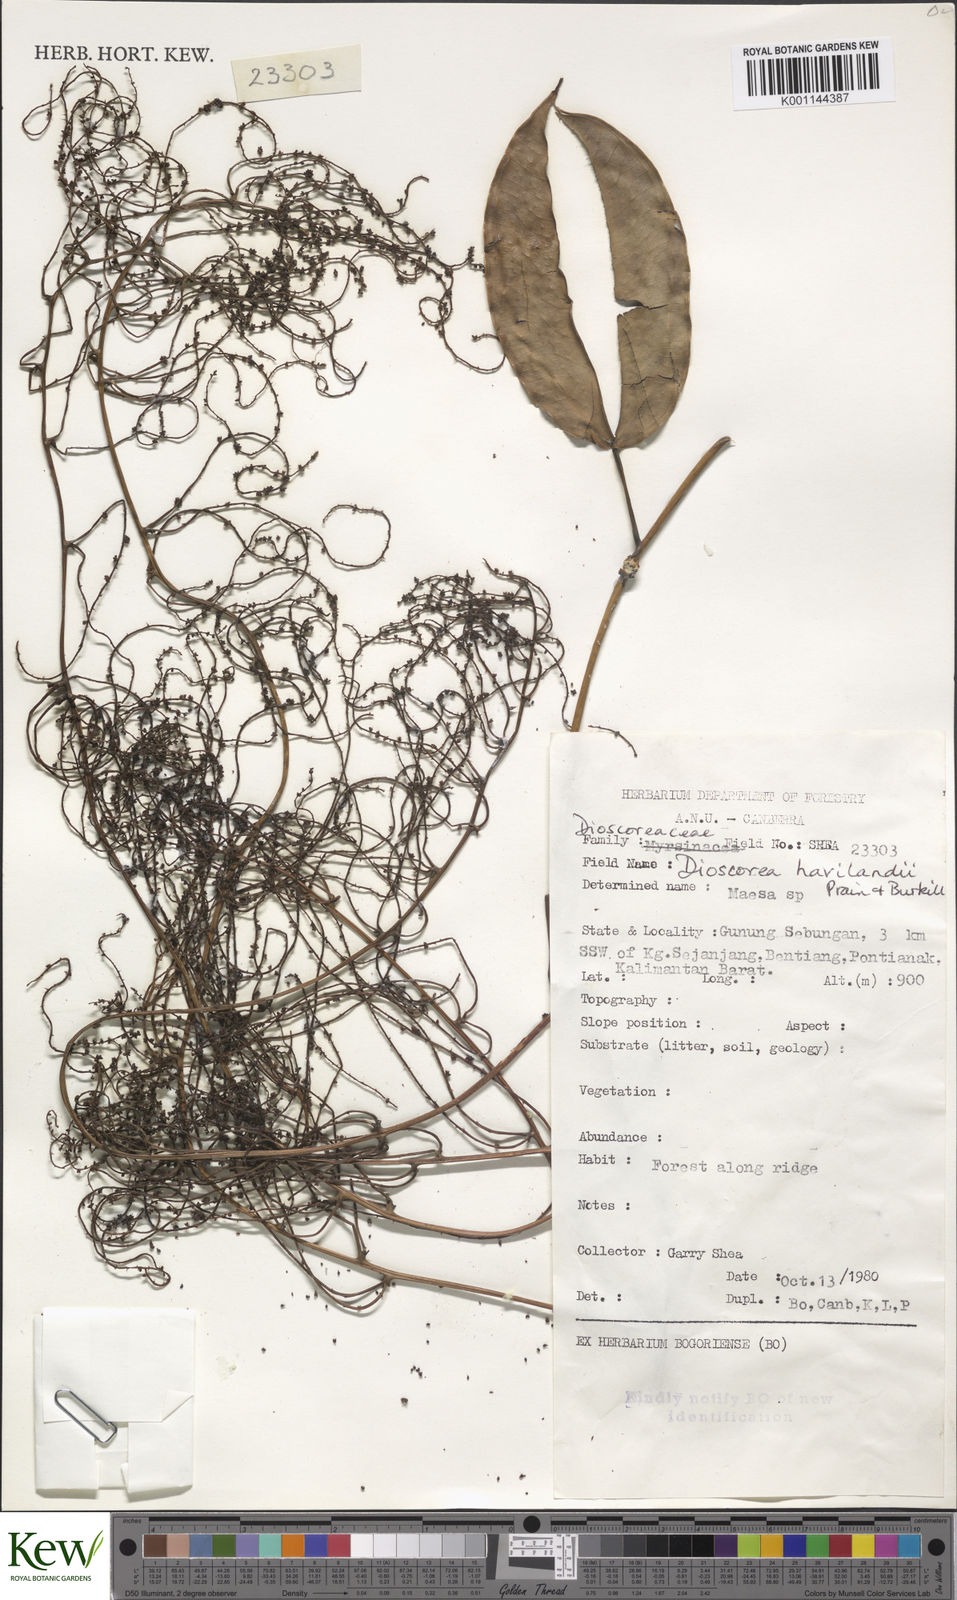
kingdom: Plantae
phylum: Tracheophyta
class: Liliopsida
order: Dioscoreales
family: Dioscoreaceae
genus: Dioscorea
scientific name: Dioscorea havilandii
